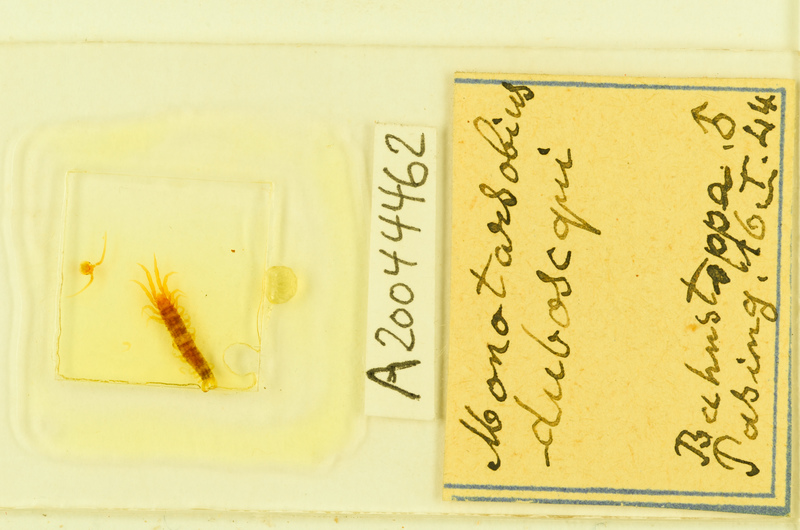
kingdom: Animalia
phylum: Arthropoda
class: Chilopoda
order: Lithobiomorpha
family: Lithobiidae
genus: Lithobius
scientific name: Lithobius microps
